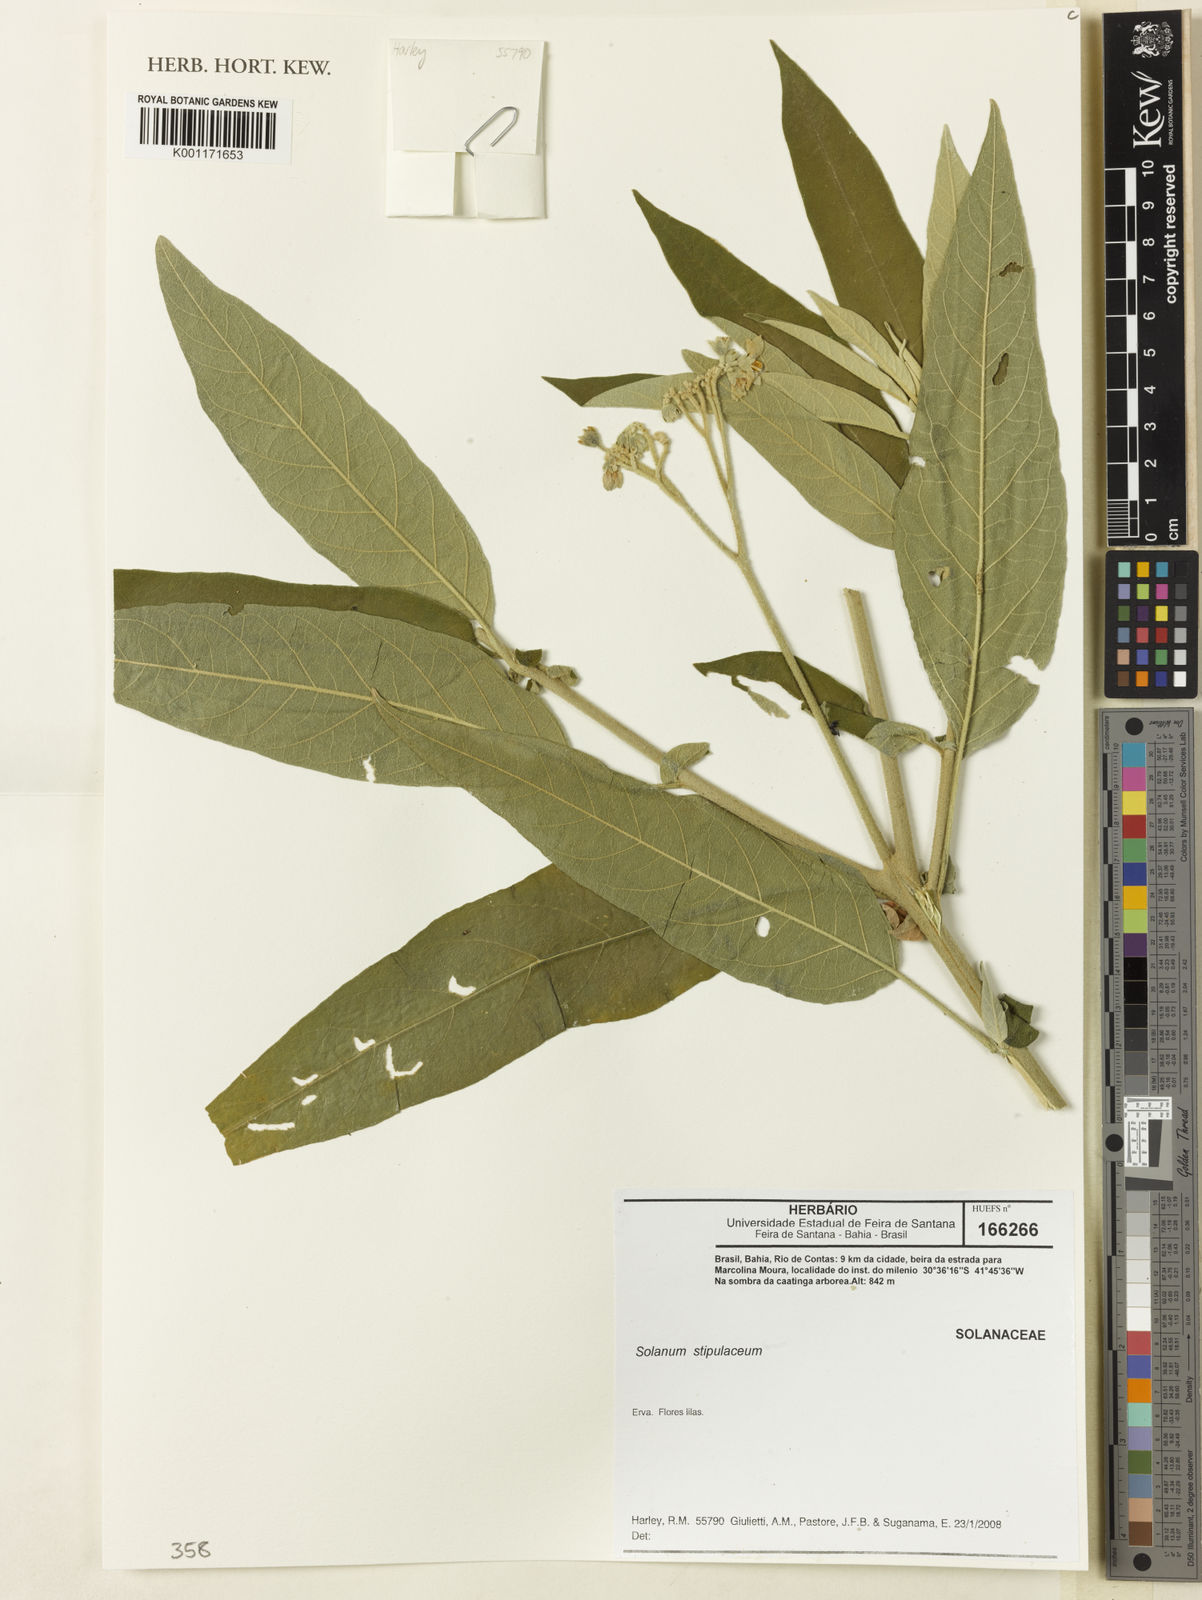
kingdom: Plantae
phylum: Tracheophyta
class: Magnoliopsida
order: Solanales
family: Solanaceae
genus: Solanum
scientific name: Solanum stipulaceum
